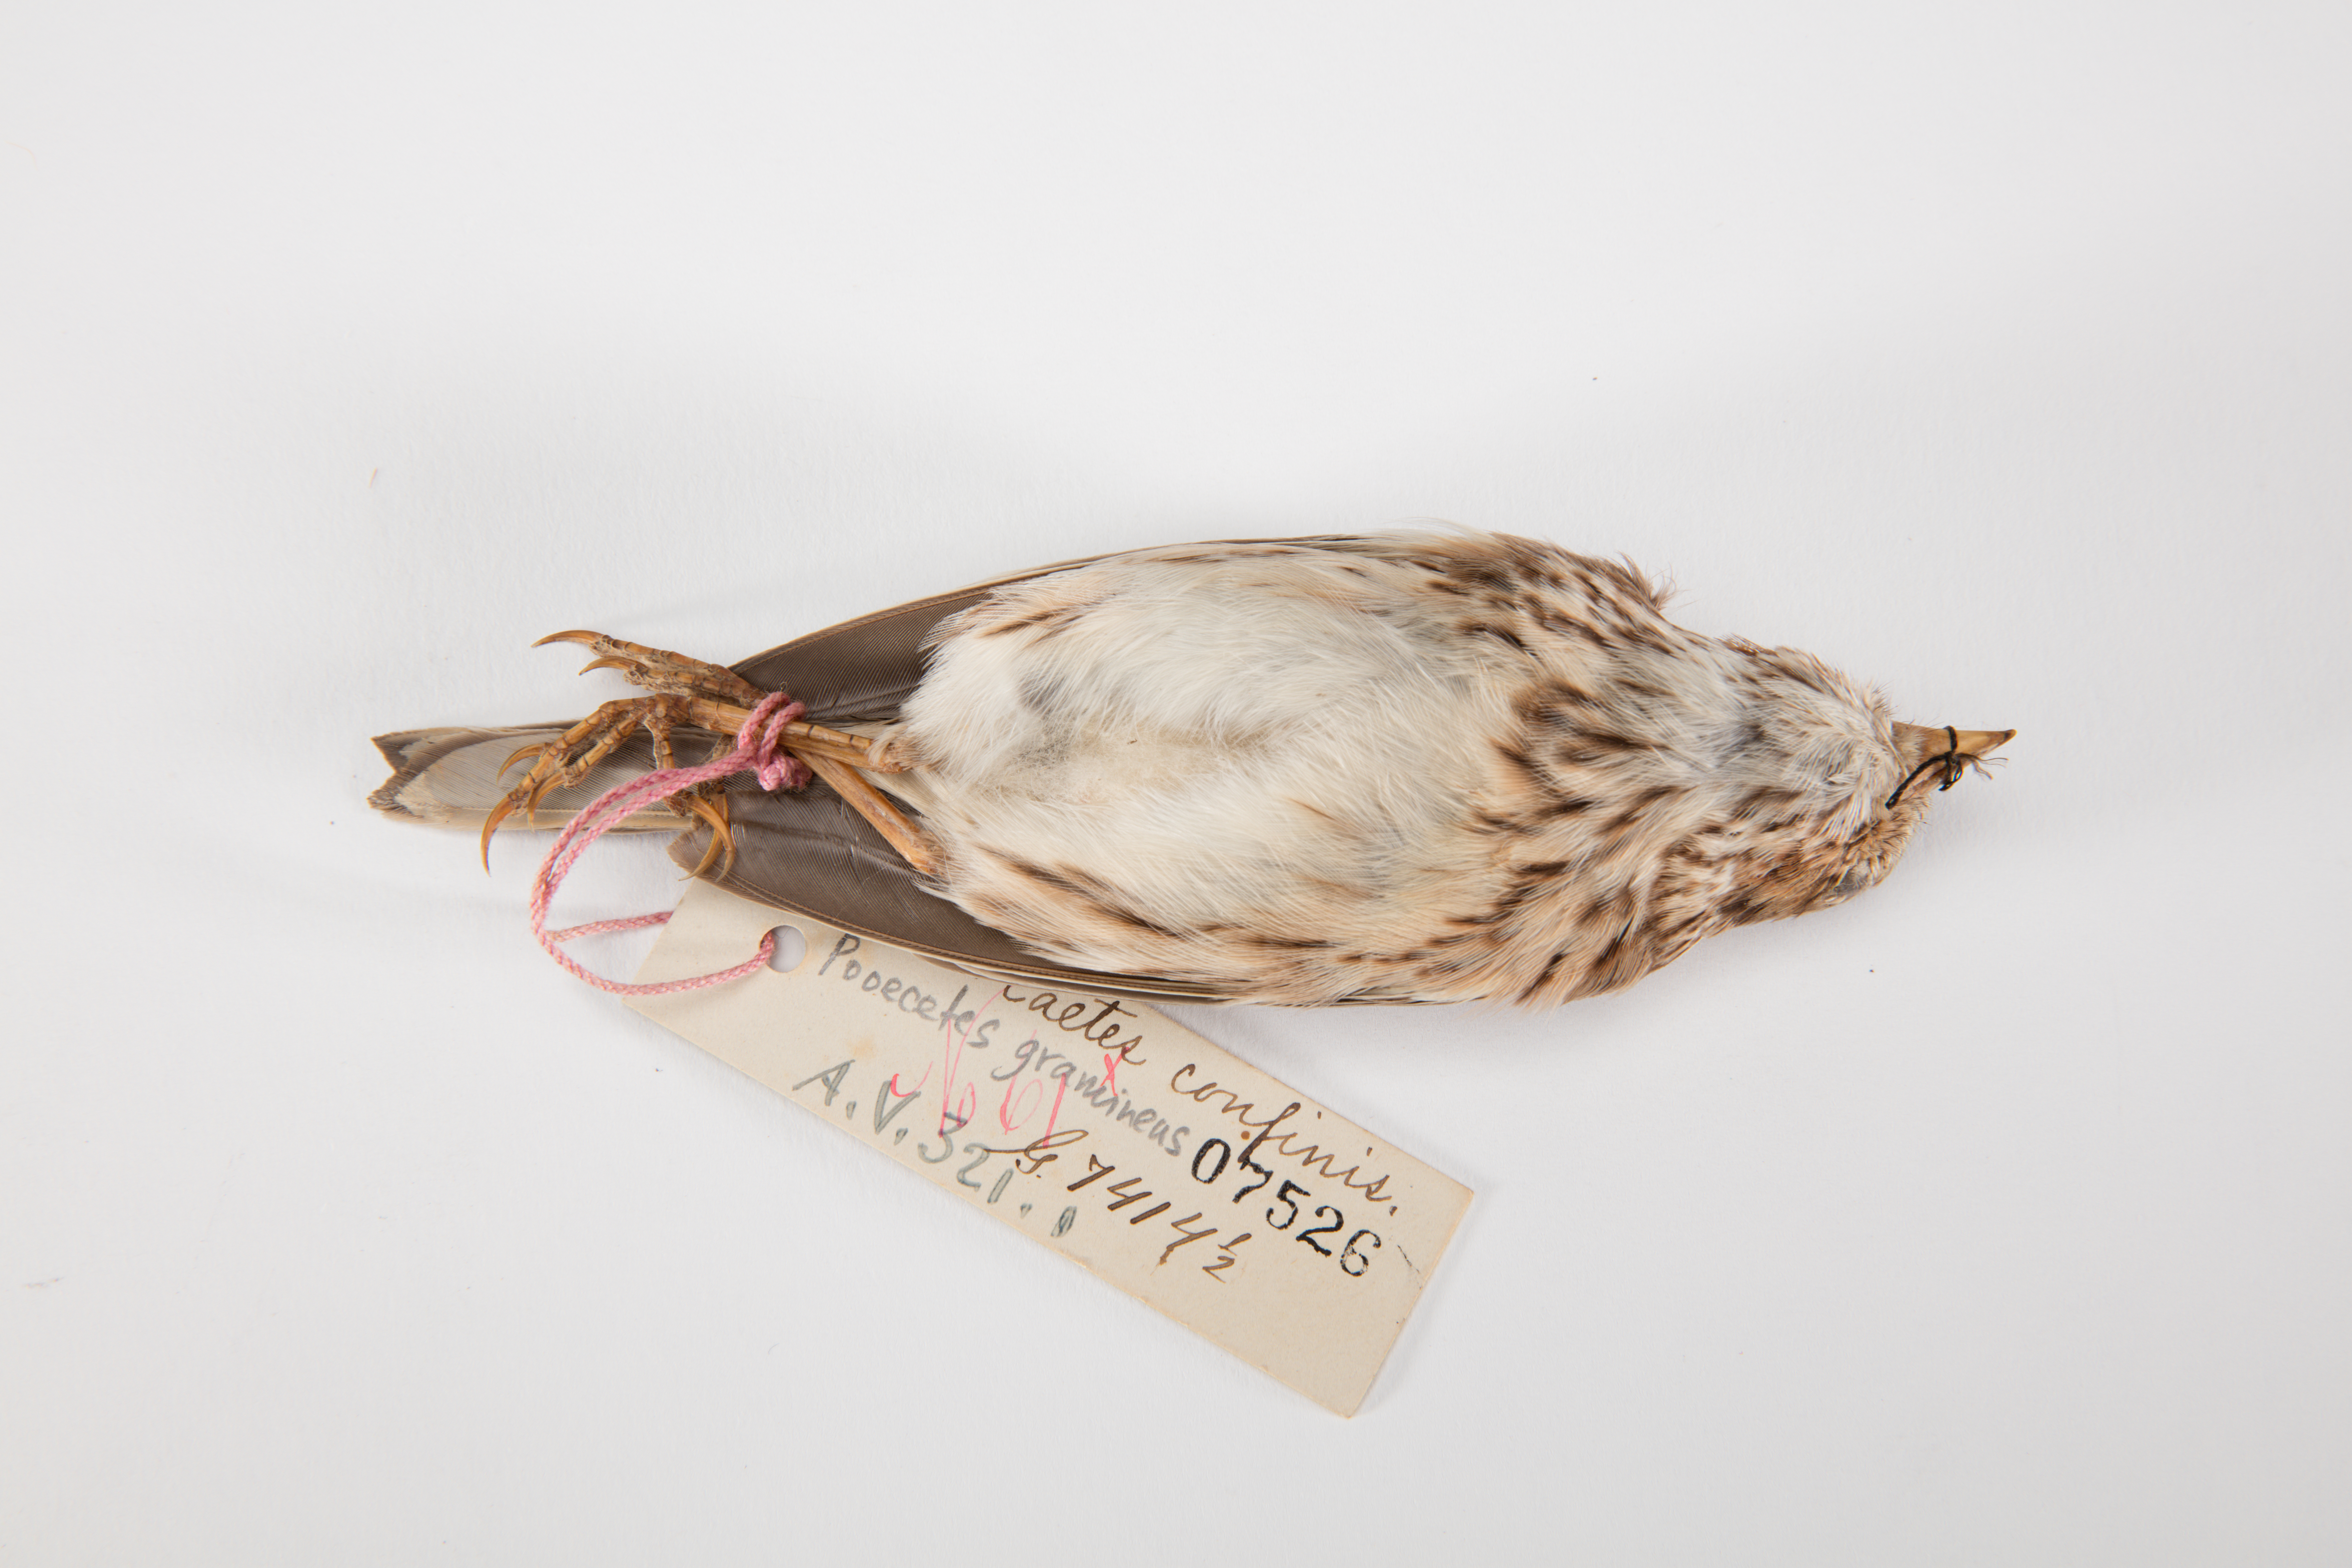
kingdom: Animalia
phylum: Chordata
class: Aves
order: Passeriformes
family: Passerellidae
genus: Pooecetes
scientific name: Pooecetes gramineus
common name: Vesper sparrow
